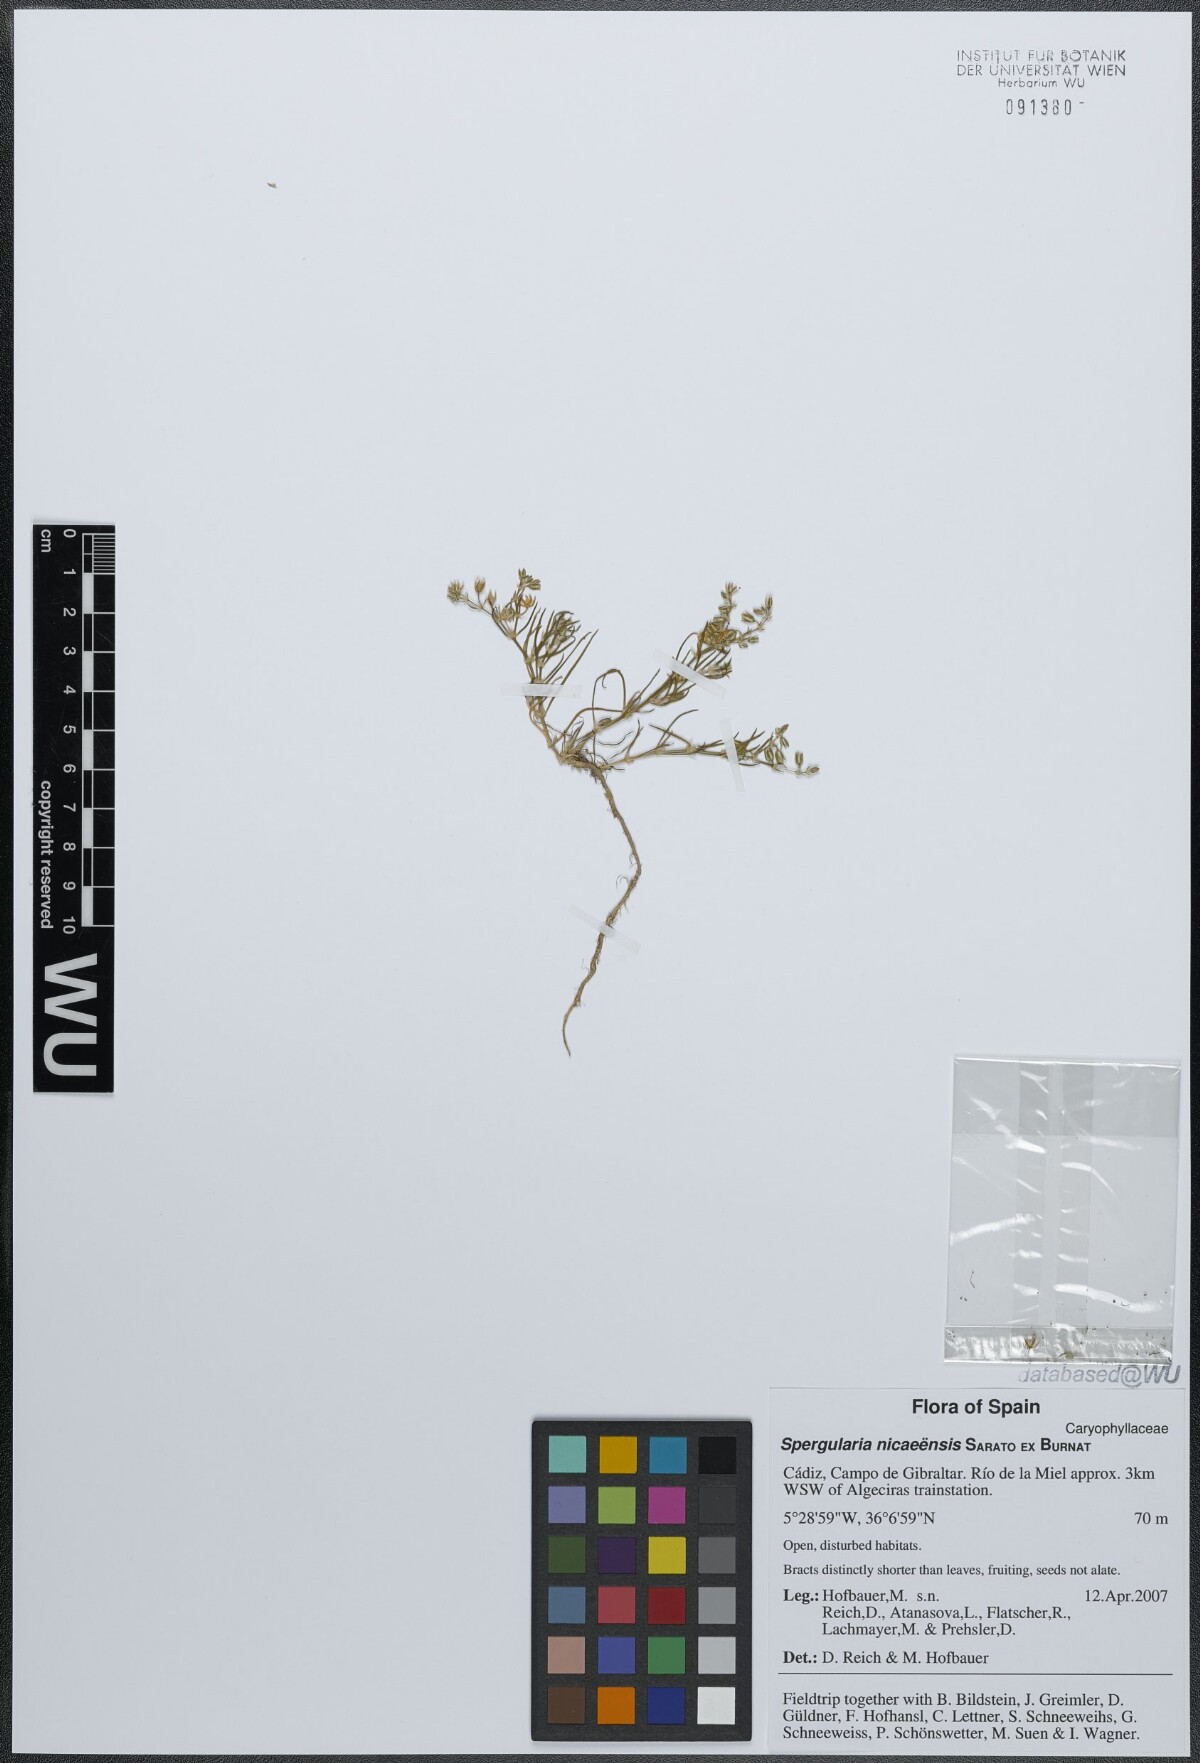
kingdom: Plantae
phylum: Tracheophyta
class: Magnoliopsida
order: Caryophyllales
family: Caryophyllaceae
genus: Spergularia
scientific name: Spergularia nicaeensis
